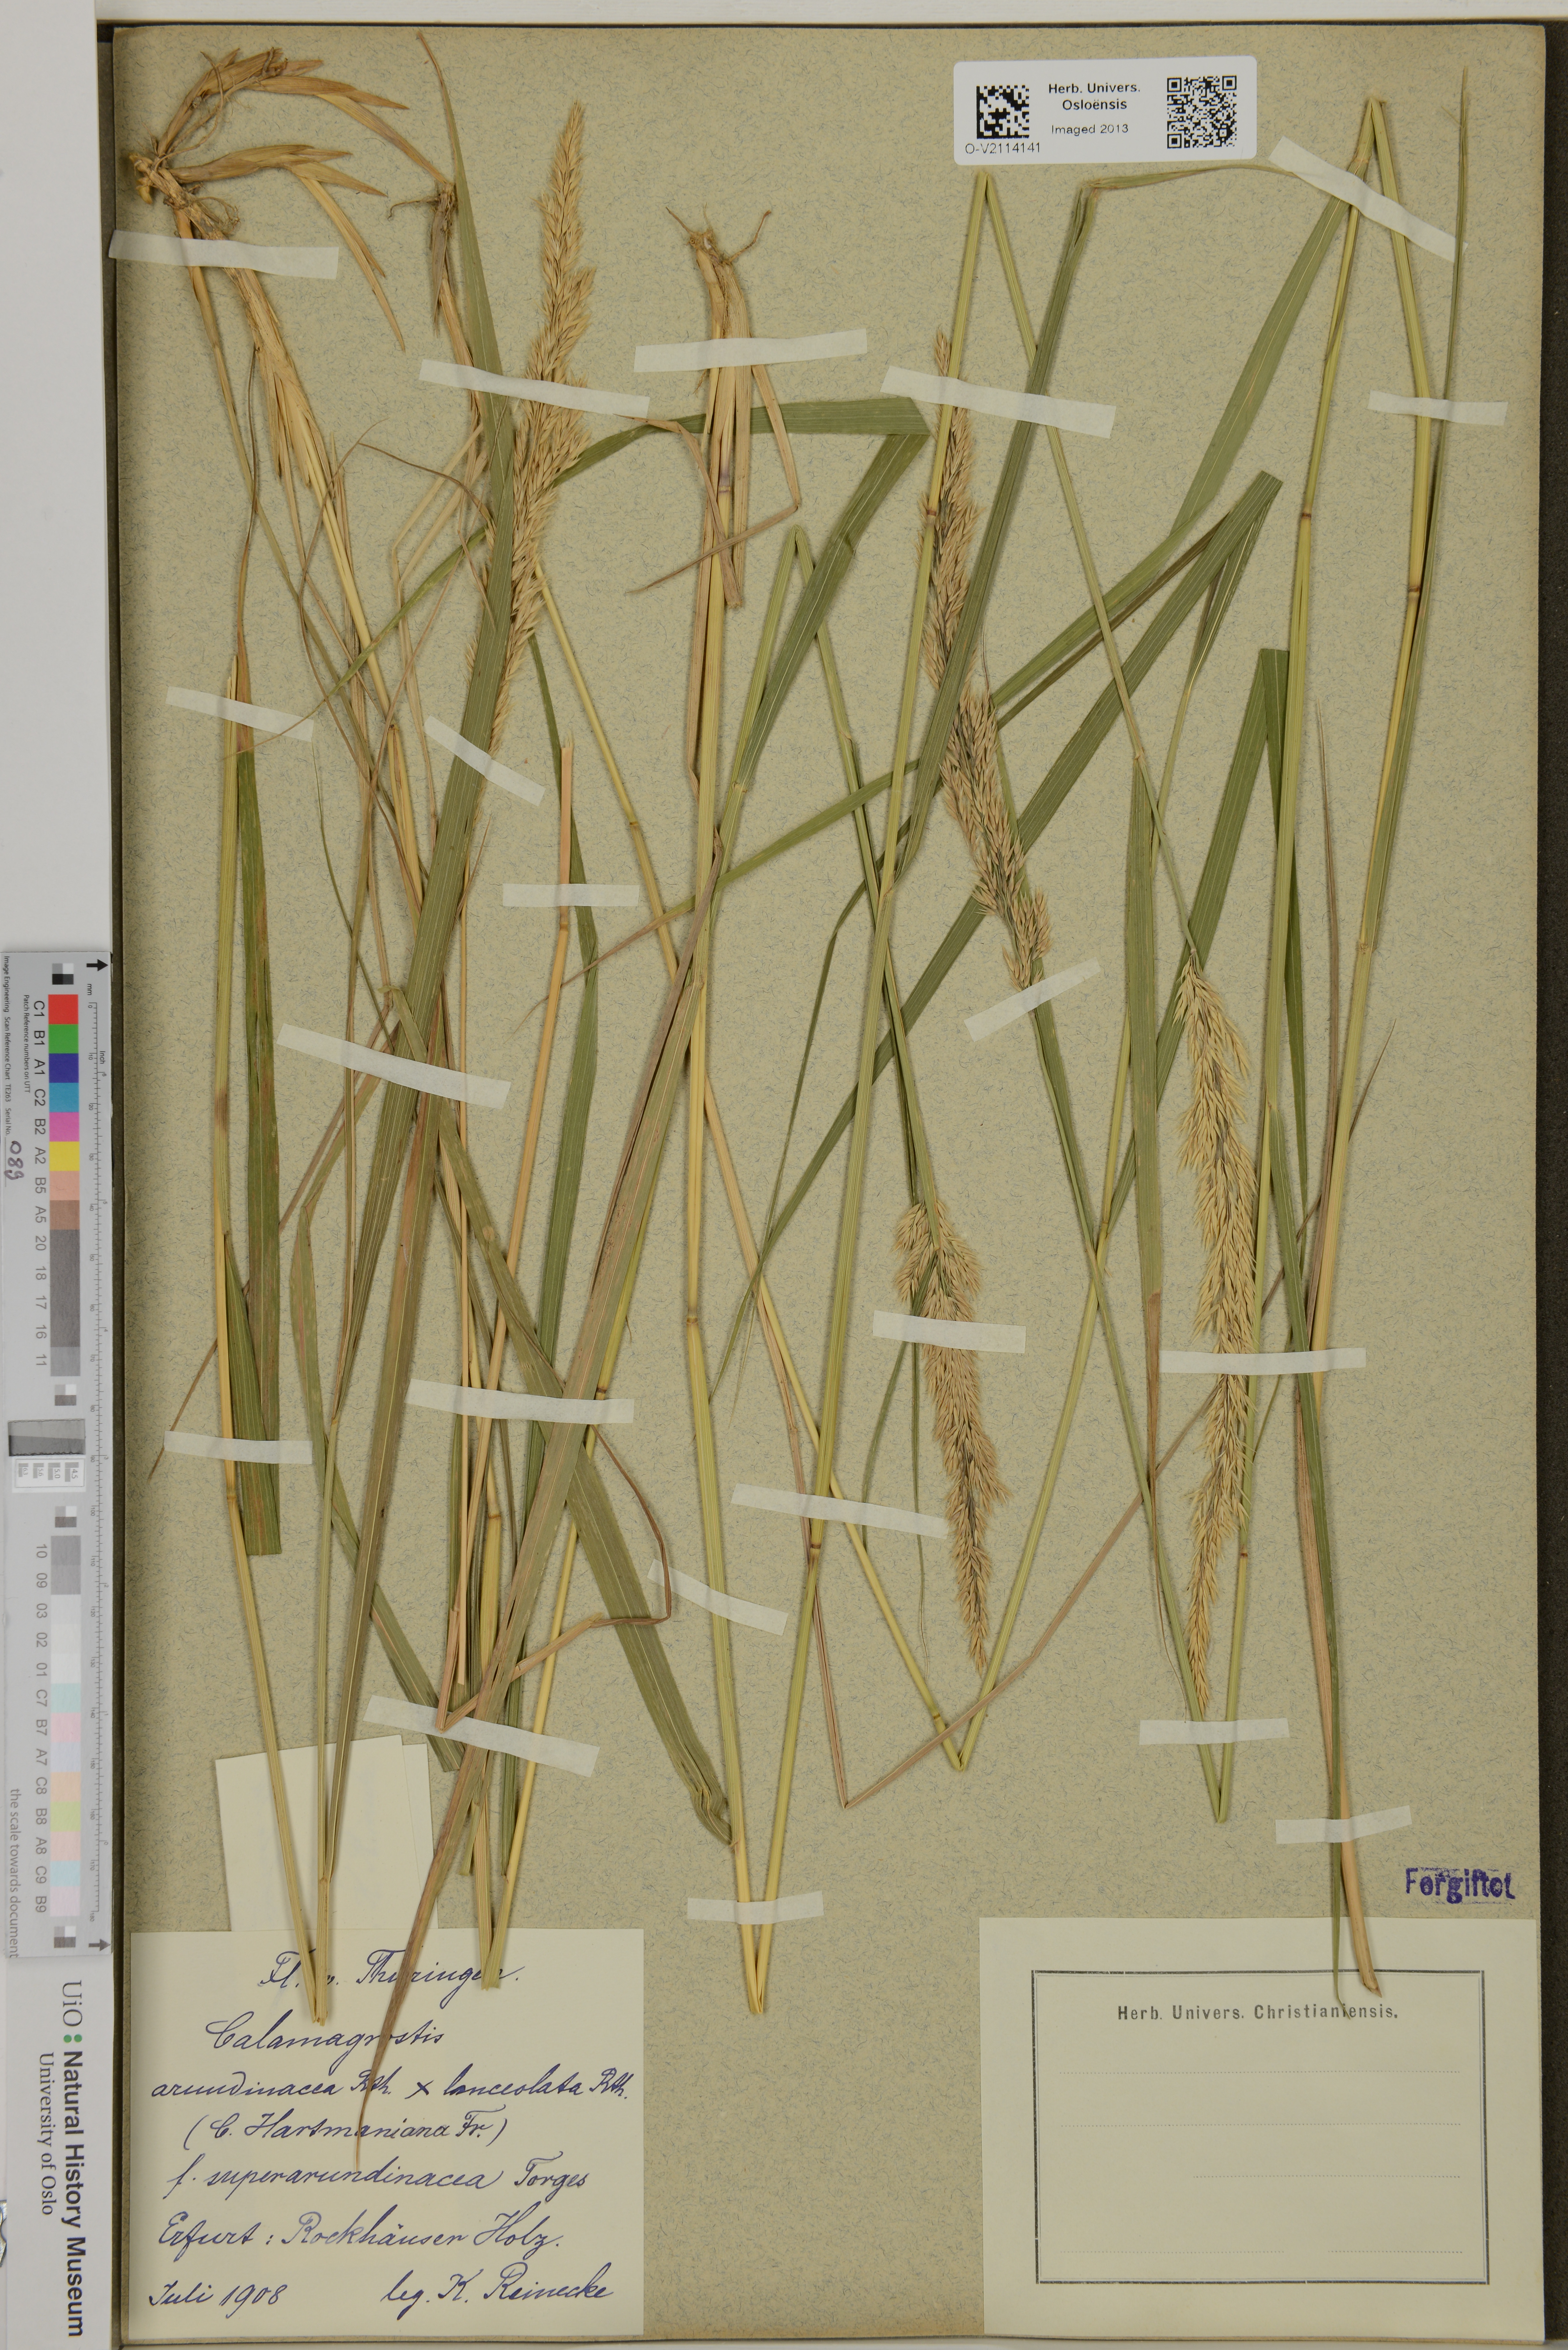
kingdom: Plantae
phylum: Tracheophyta
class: Liliopsida
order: Poales
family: Poaceae
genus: Calamagrostis
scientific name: Calamagrostis arundinacea
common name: Metskastik
